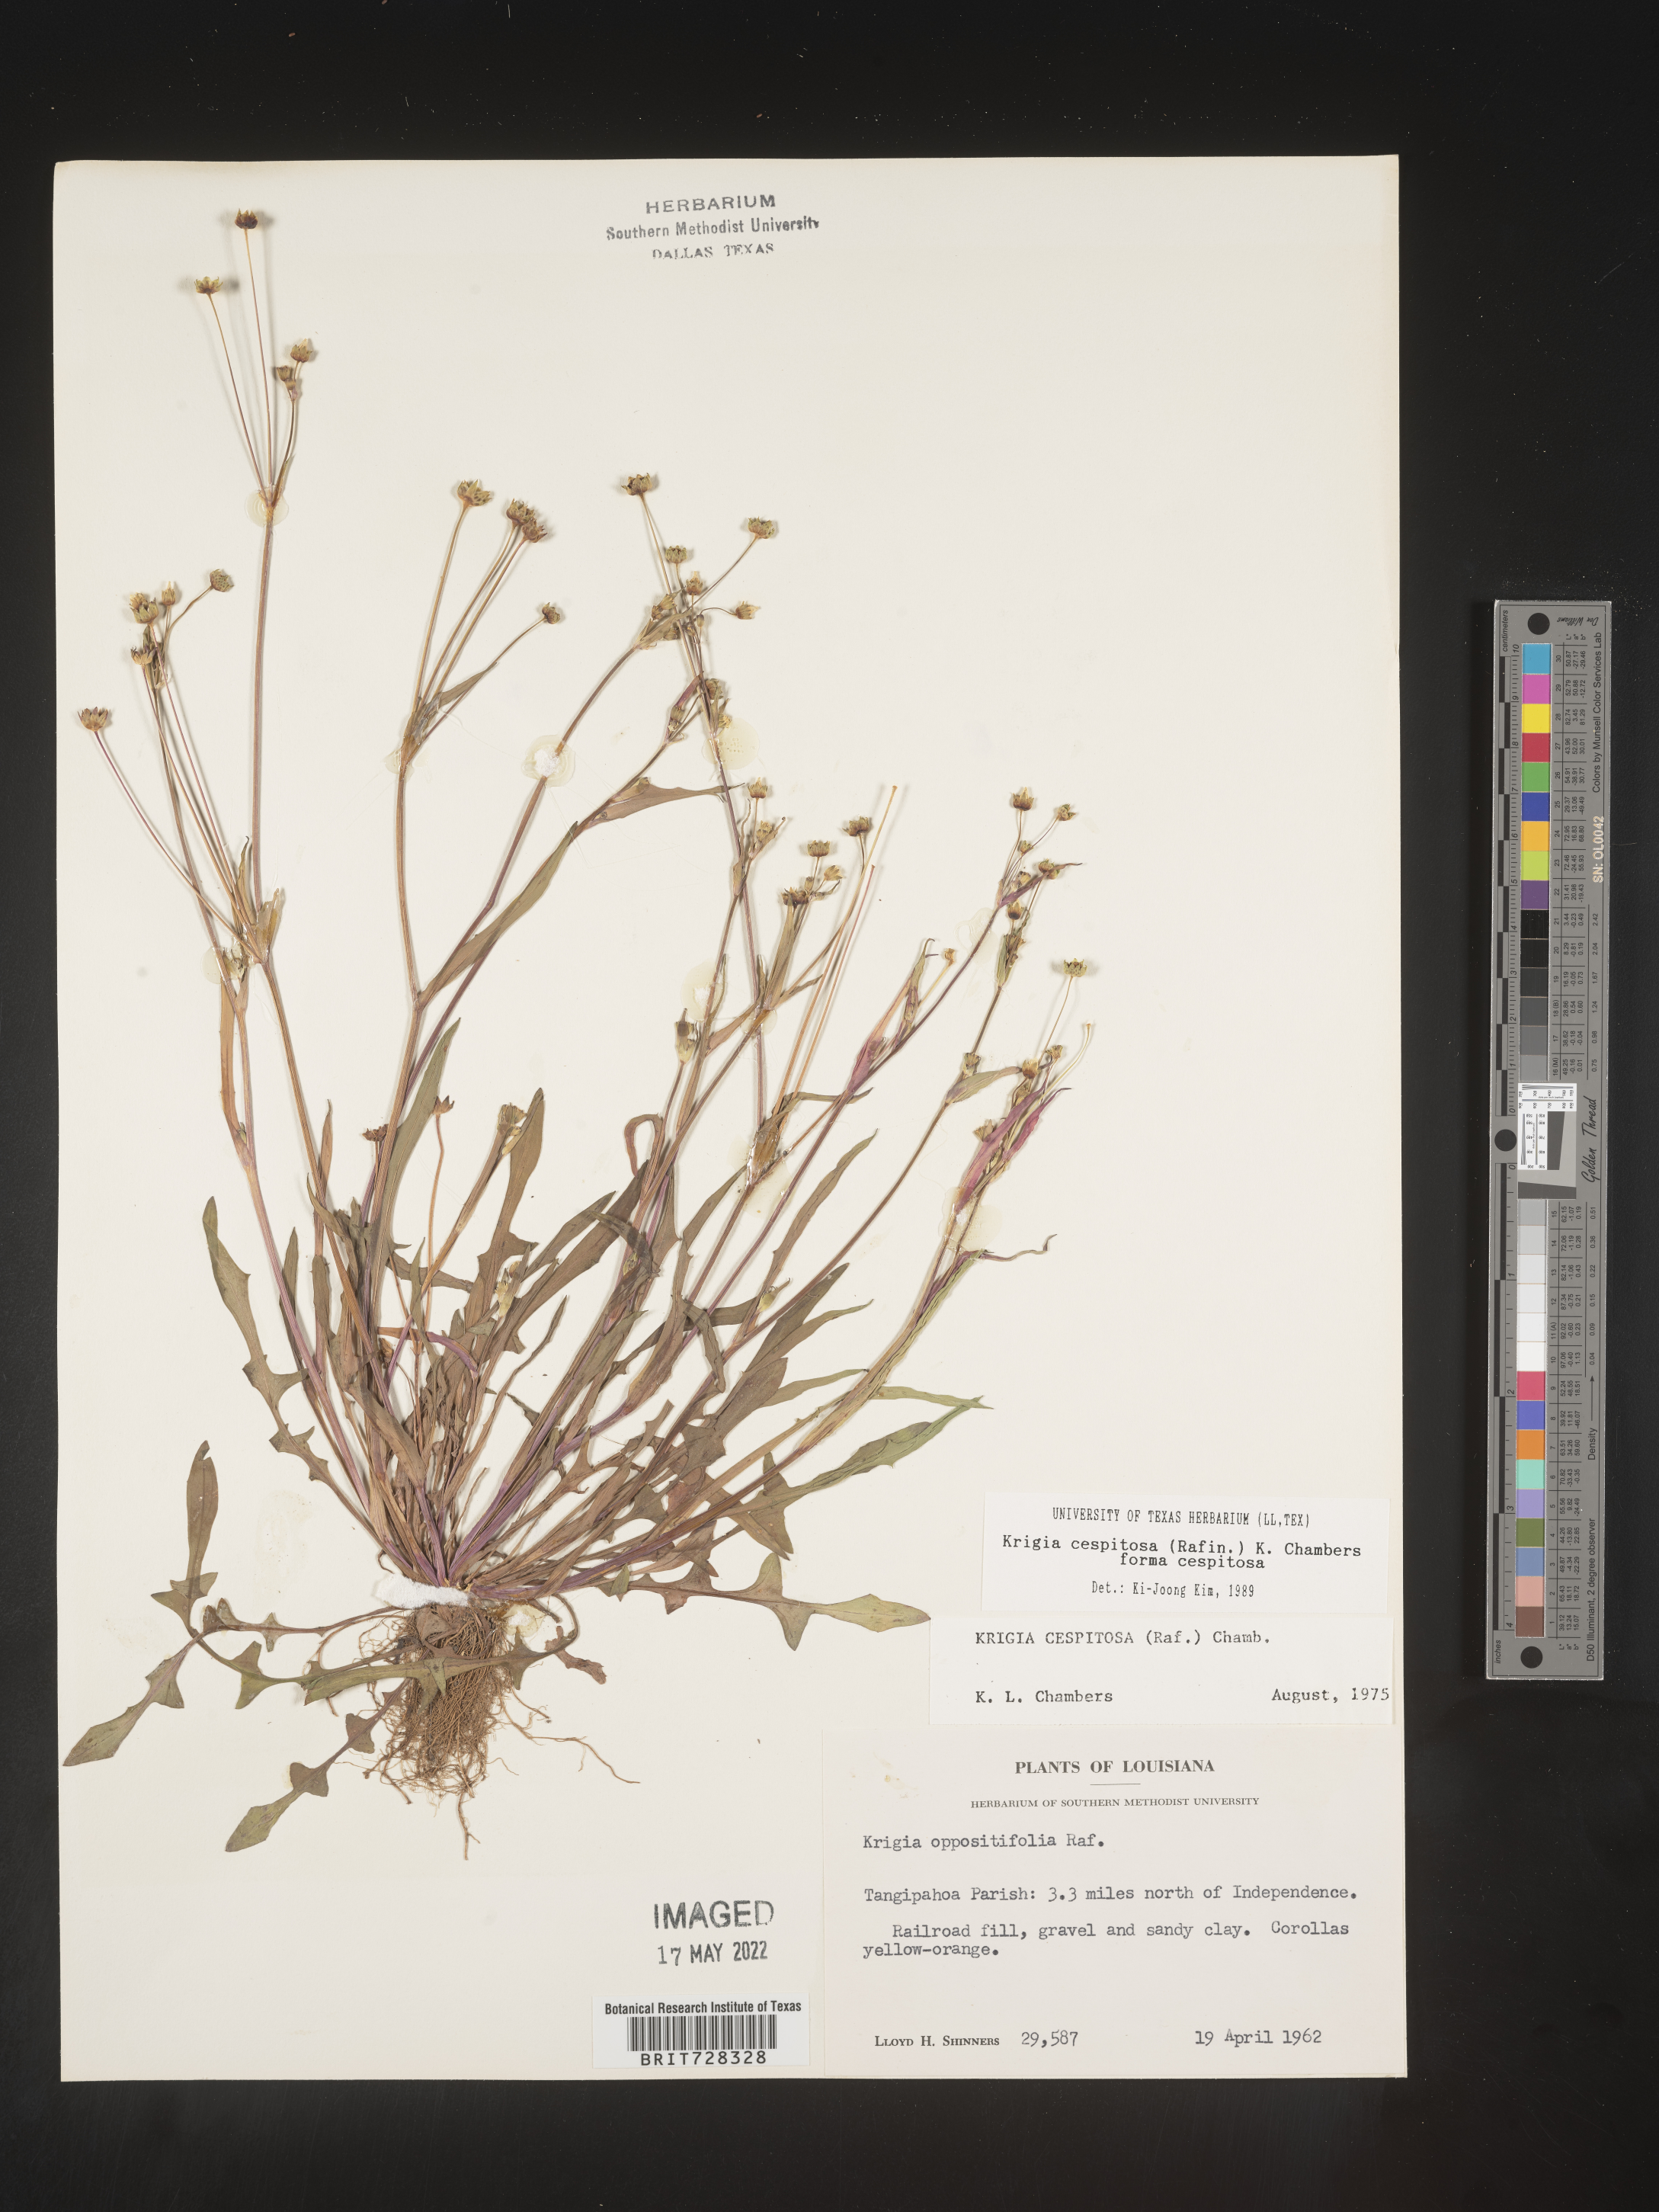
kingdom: Plantae
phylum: Tracheophyta
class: Magnoliopsida
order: Asterales
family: Asteraceae
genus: Krigia
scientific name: Krigia caespitosa
